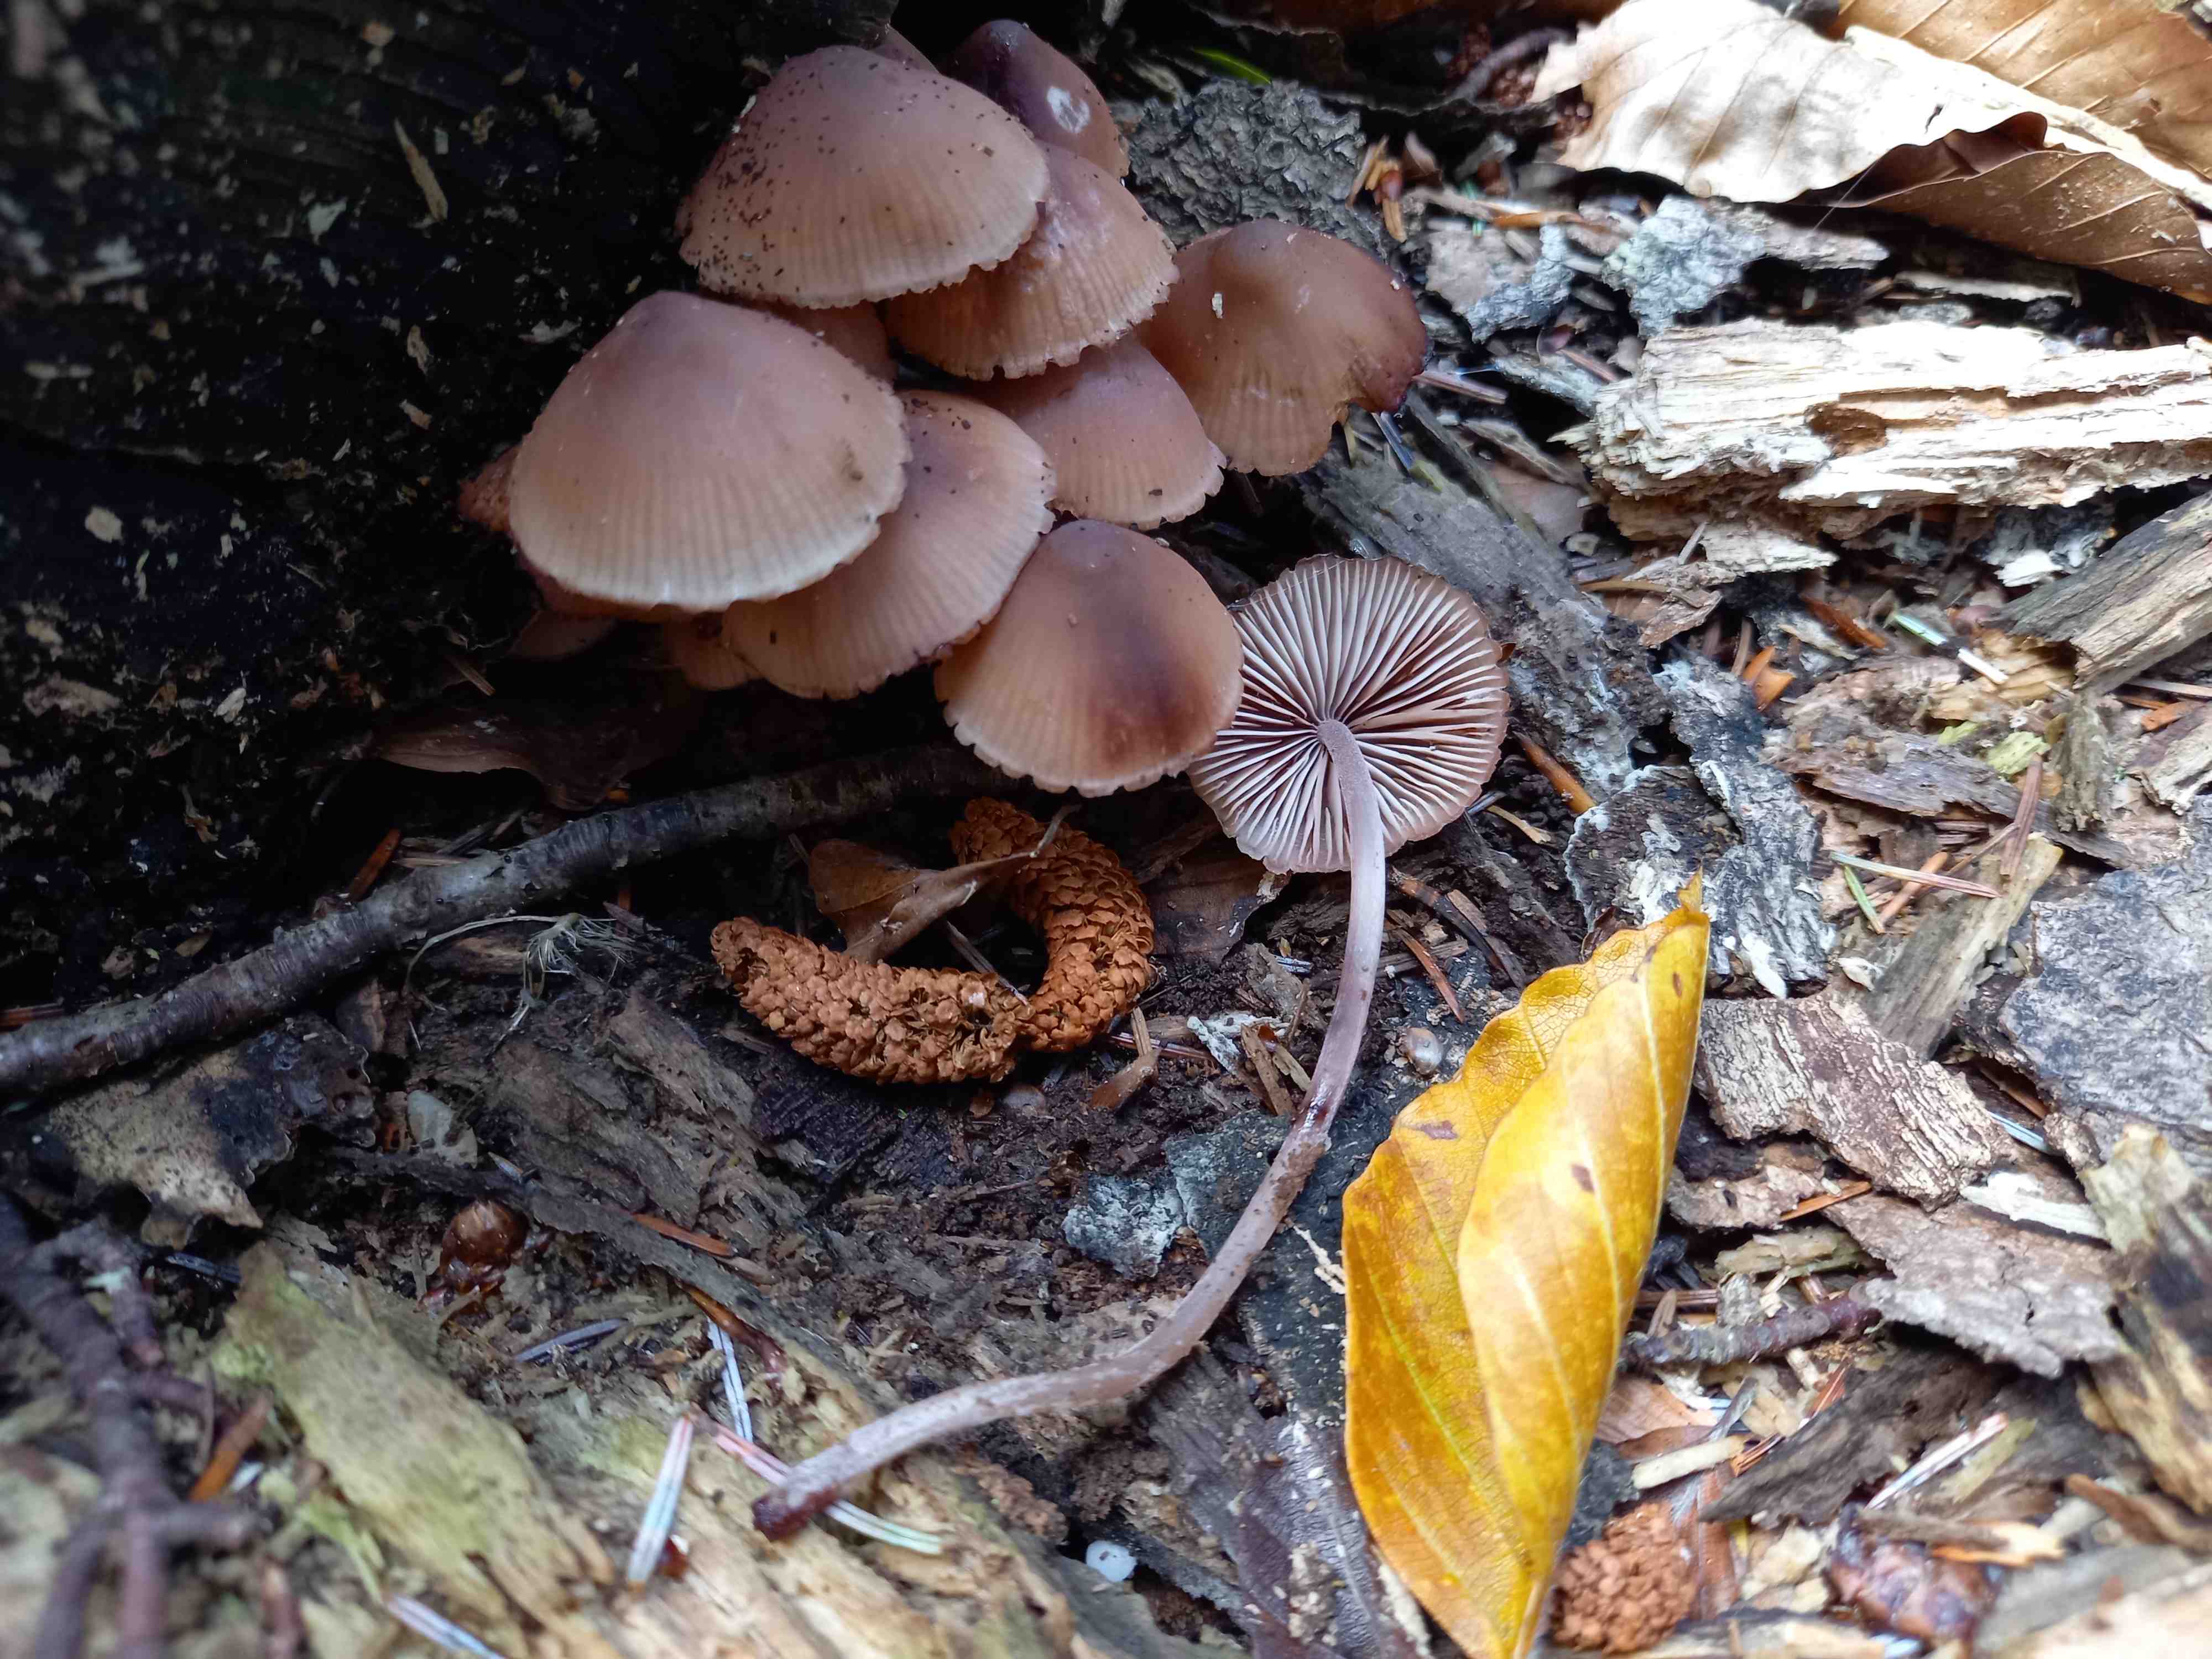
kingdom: Fungi
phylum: Basidiomycota
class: Agaricomycetes
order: Agaricales
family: Mycenaceae
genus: Mycena
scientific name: Mycena haematopus
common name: blødende huesvamp
